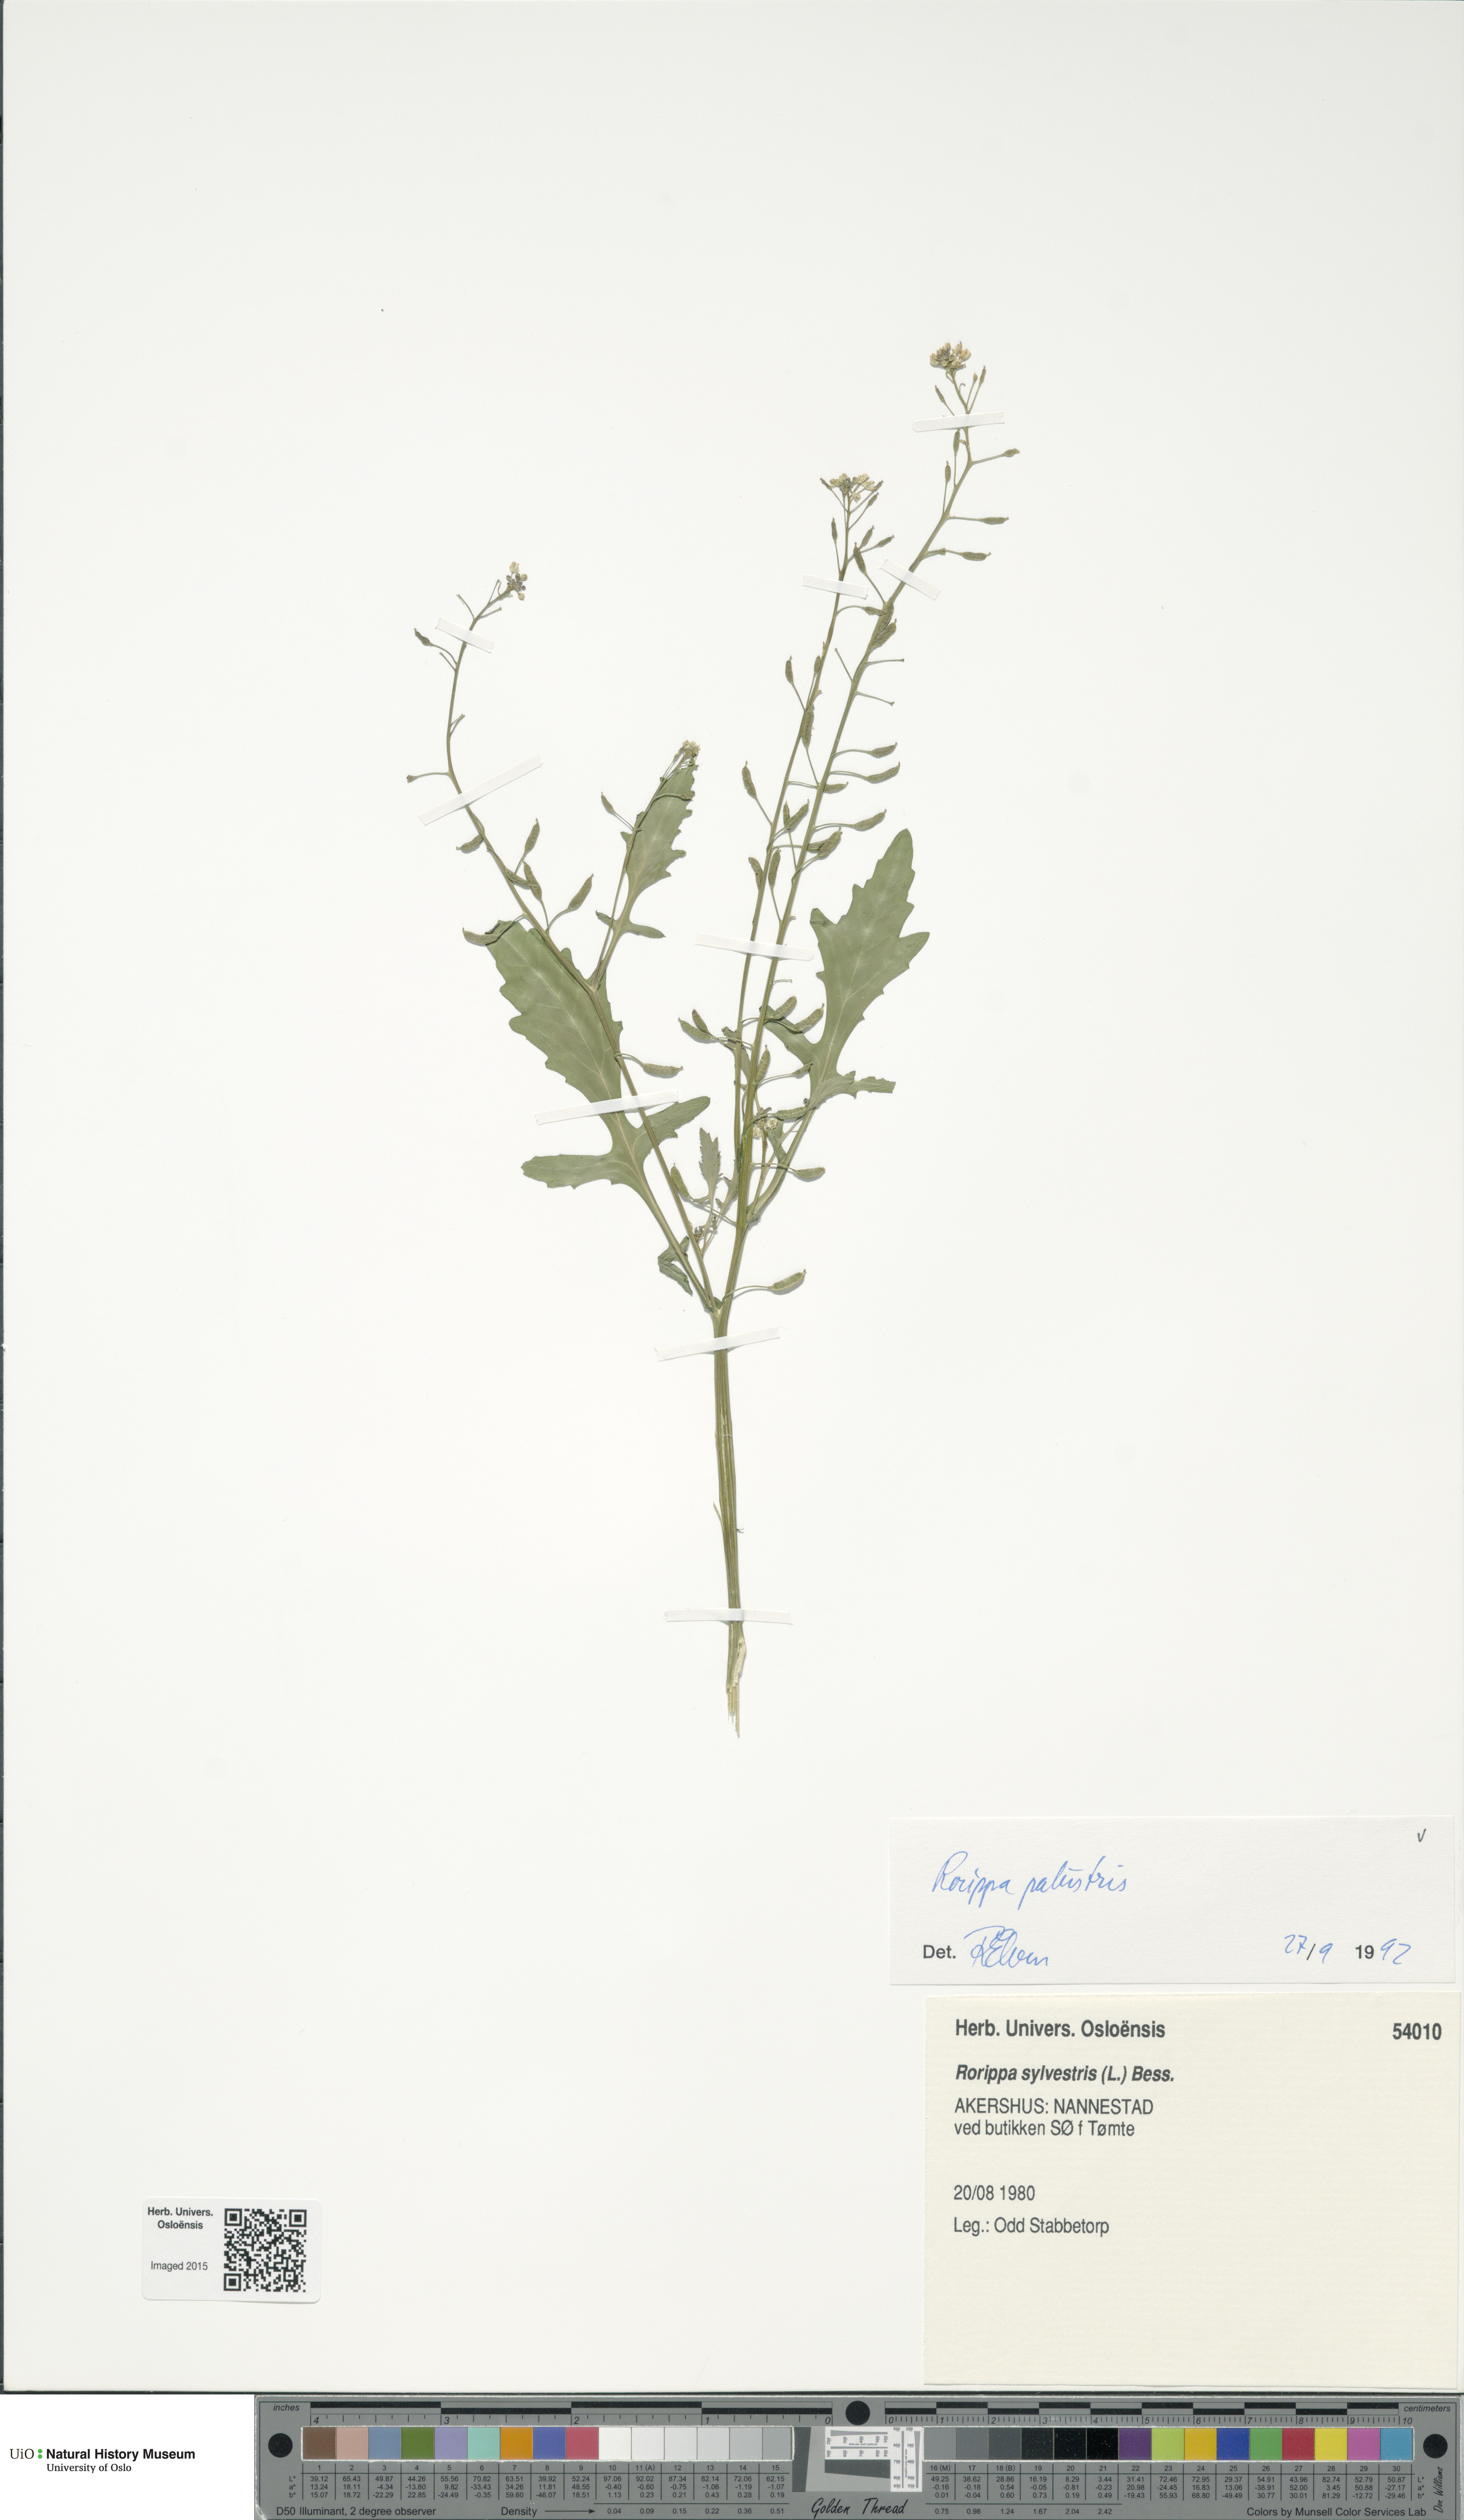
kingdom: Plantae
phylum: Tracheophyta
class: Magnoliopsida
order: Brassicales
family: Brassicaceae
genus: Rorippa
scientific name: Rorippa palustris
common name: Marsh yellow-cress
